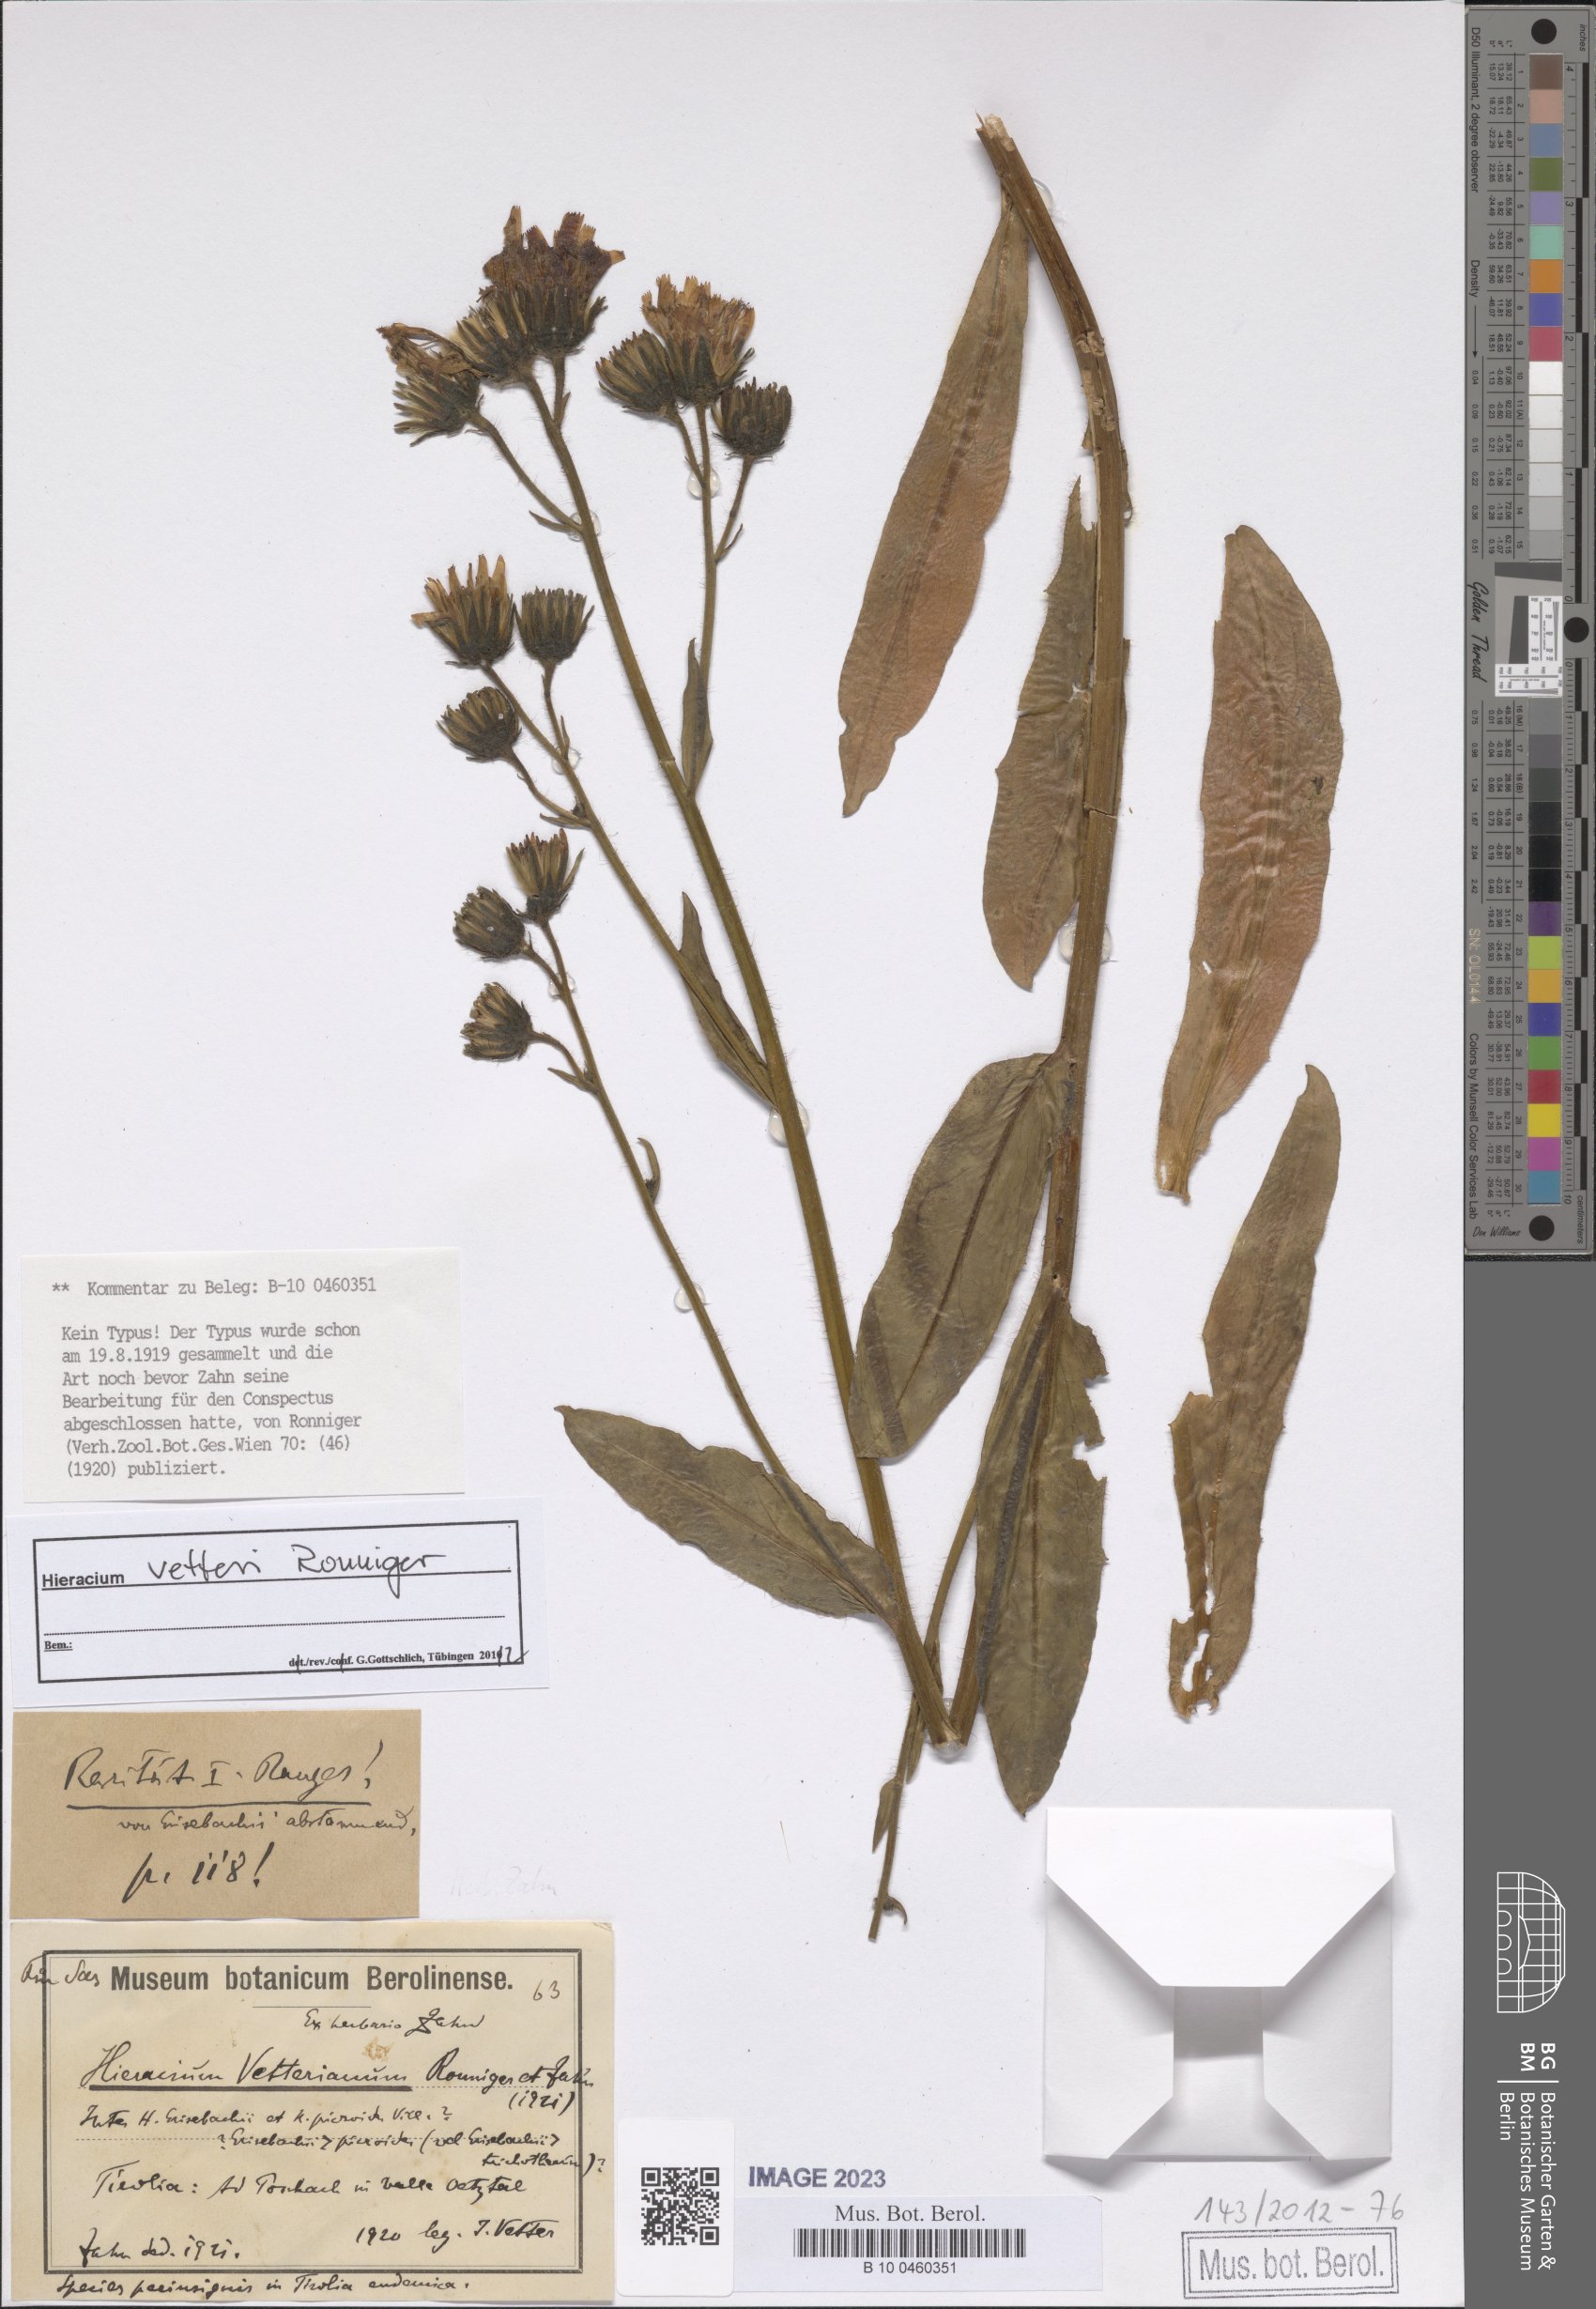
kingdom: Plantae
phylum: Tracheophyta
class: Magnoliopsida
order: Asterales
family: Asteraceae
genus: Hieracium
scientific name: Hieracium vetteri
